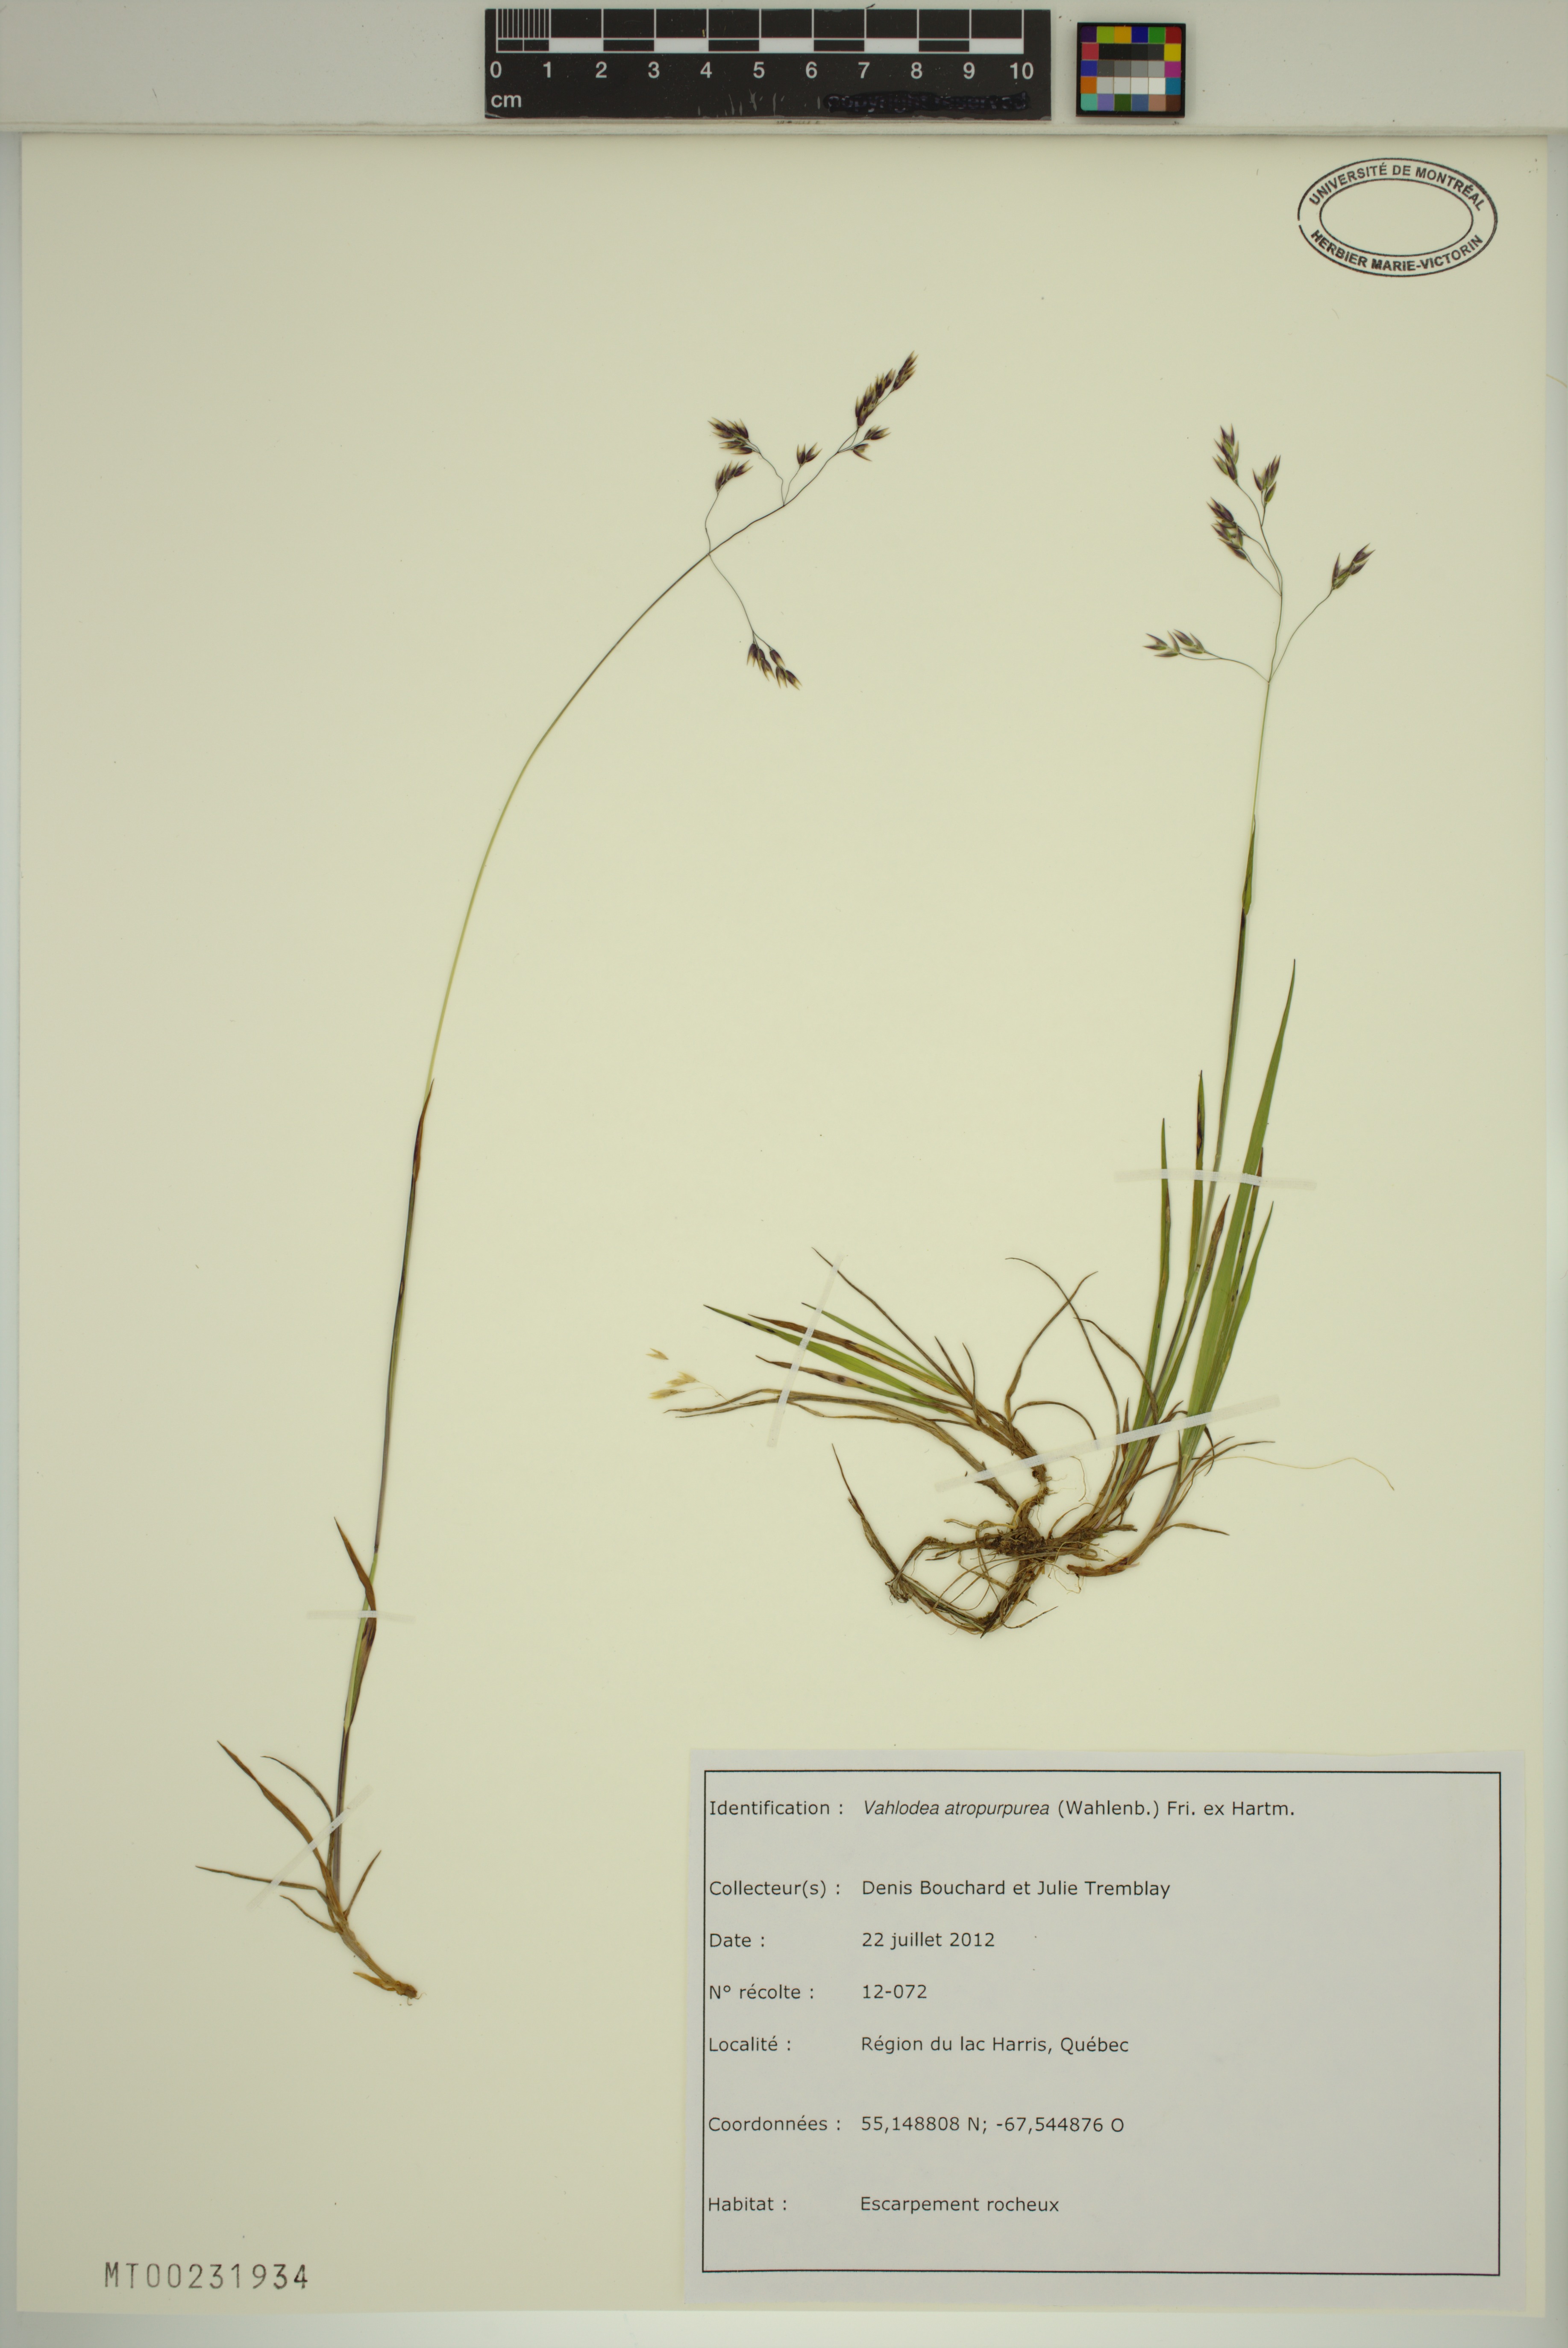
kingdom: Plantae
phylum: Tracheophyta
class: Liliopsida
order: Poales
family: Poaceae
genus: Vahlodea
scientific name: Vahlodea atropurpurea
